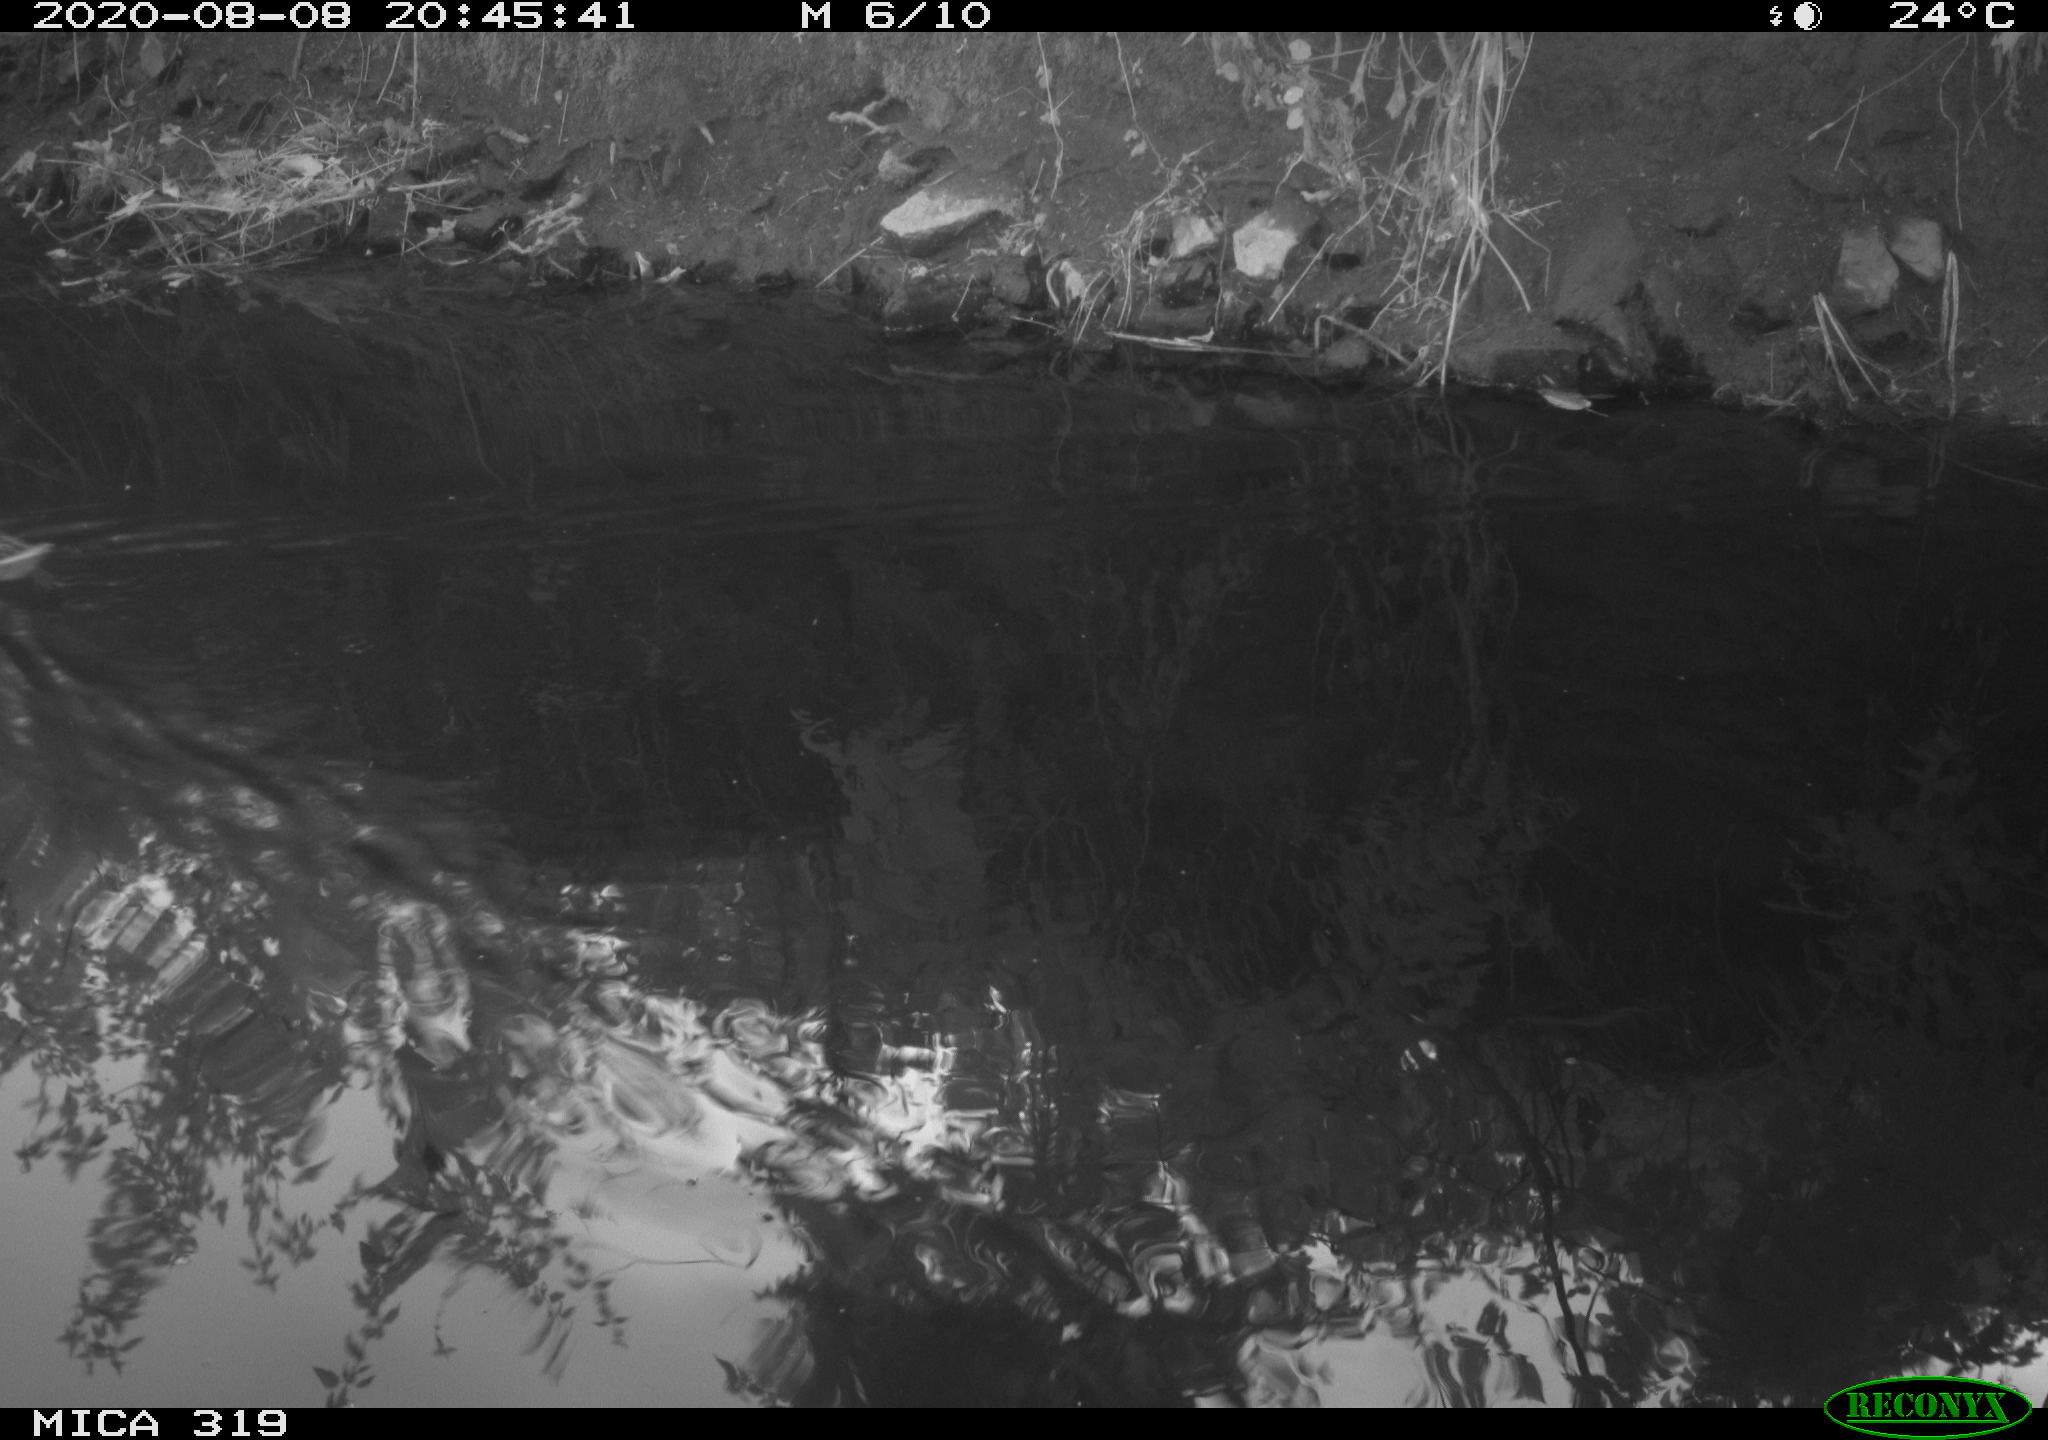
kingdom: Animalia
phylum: Chordata
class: Aves
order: Anseriformes
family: Anatidae
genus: Anas
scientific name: Anas platyrhynchos
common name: Mallard
